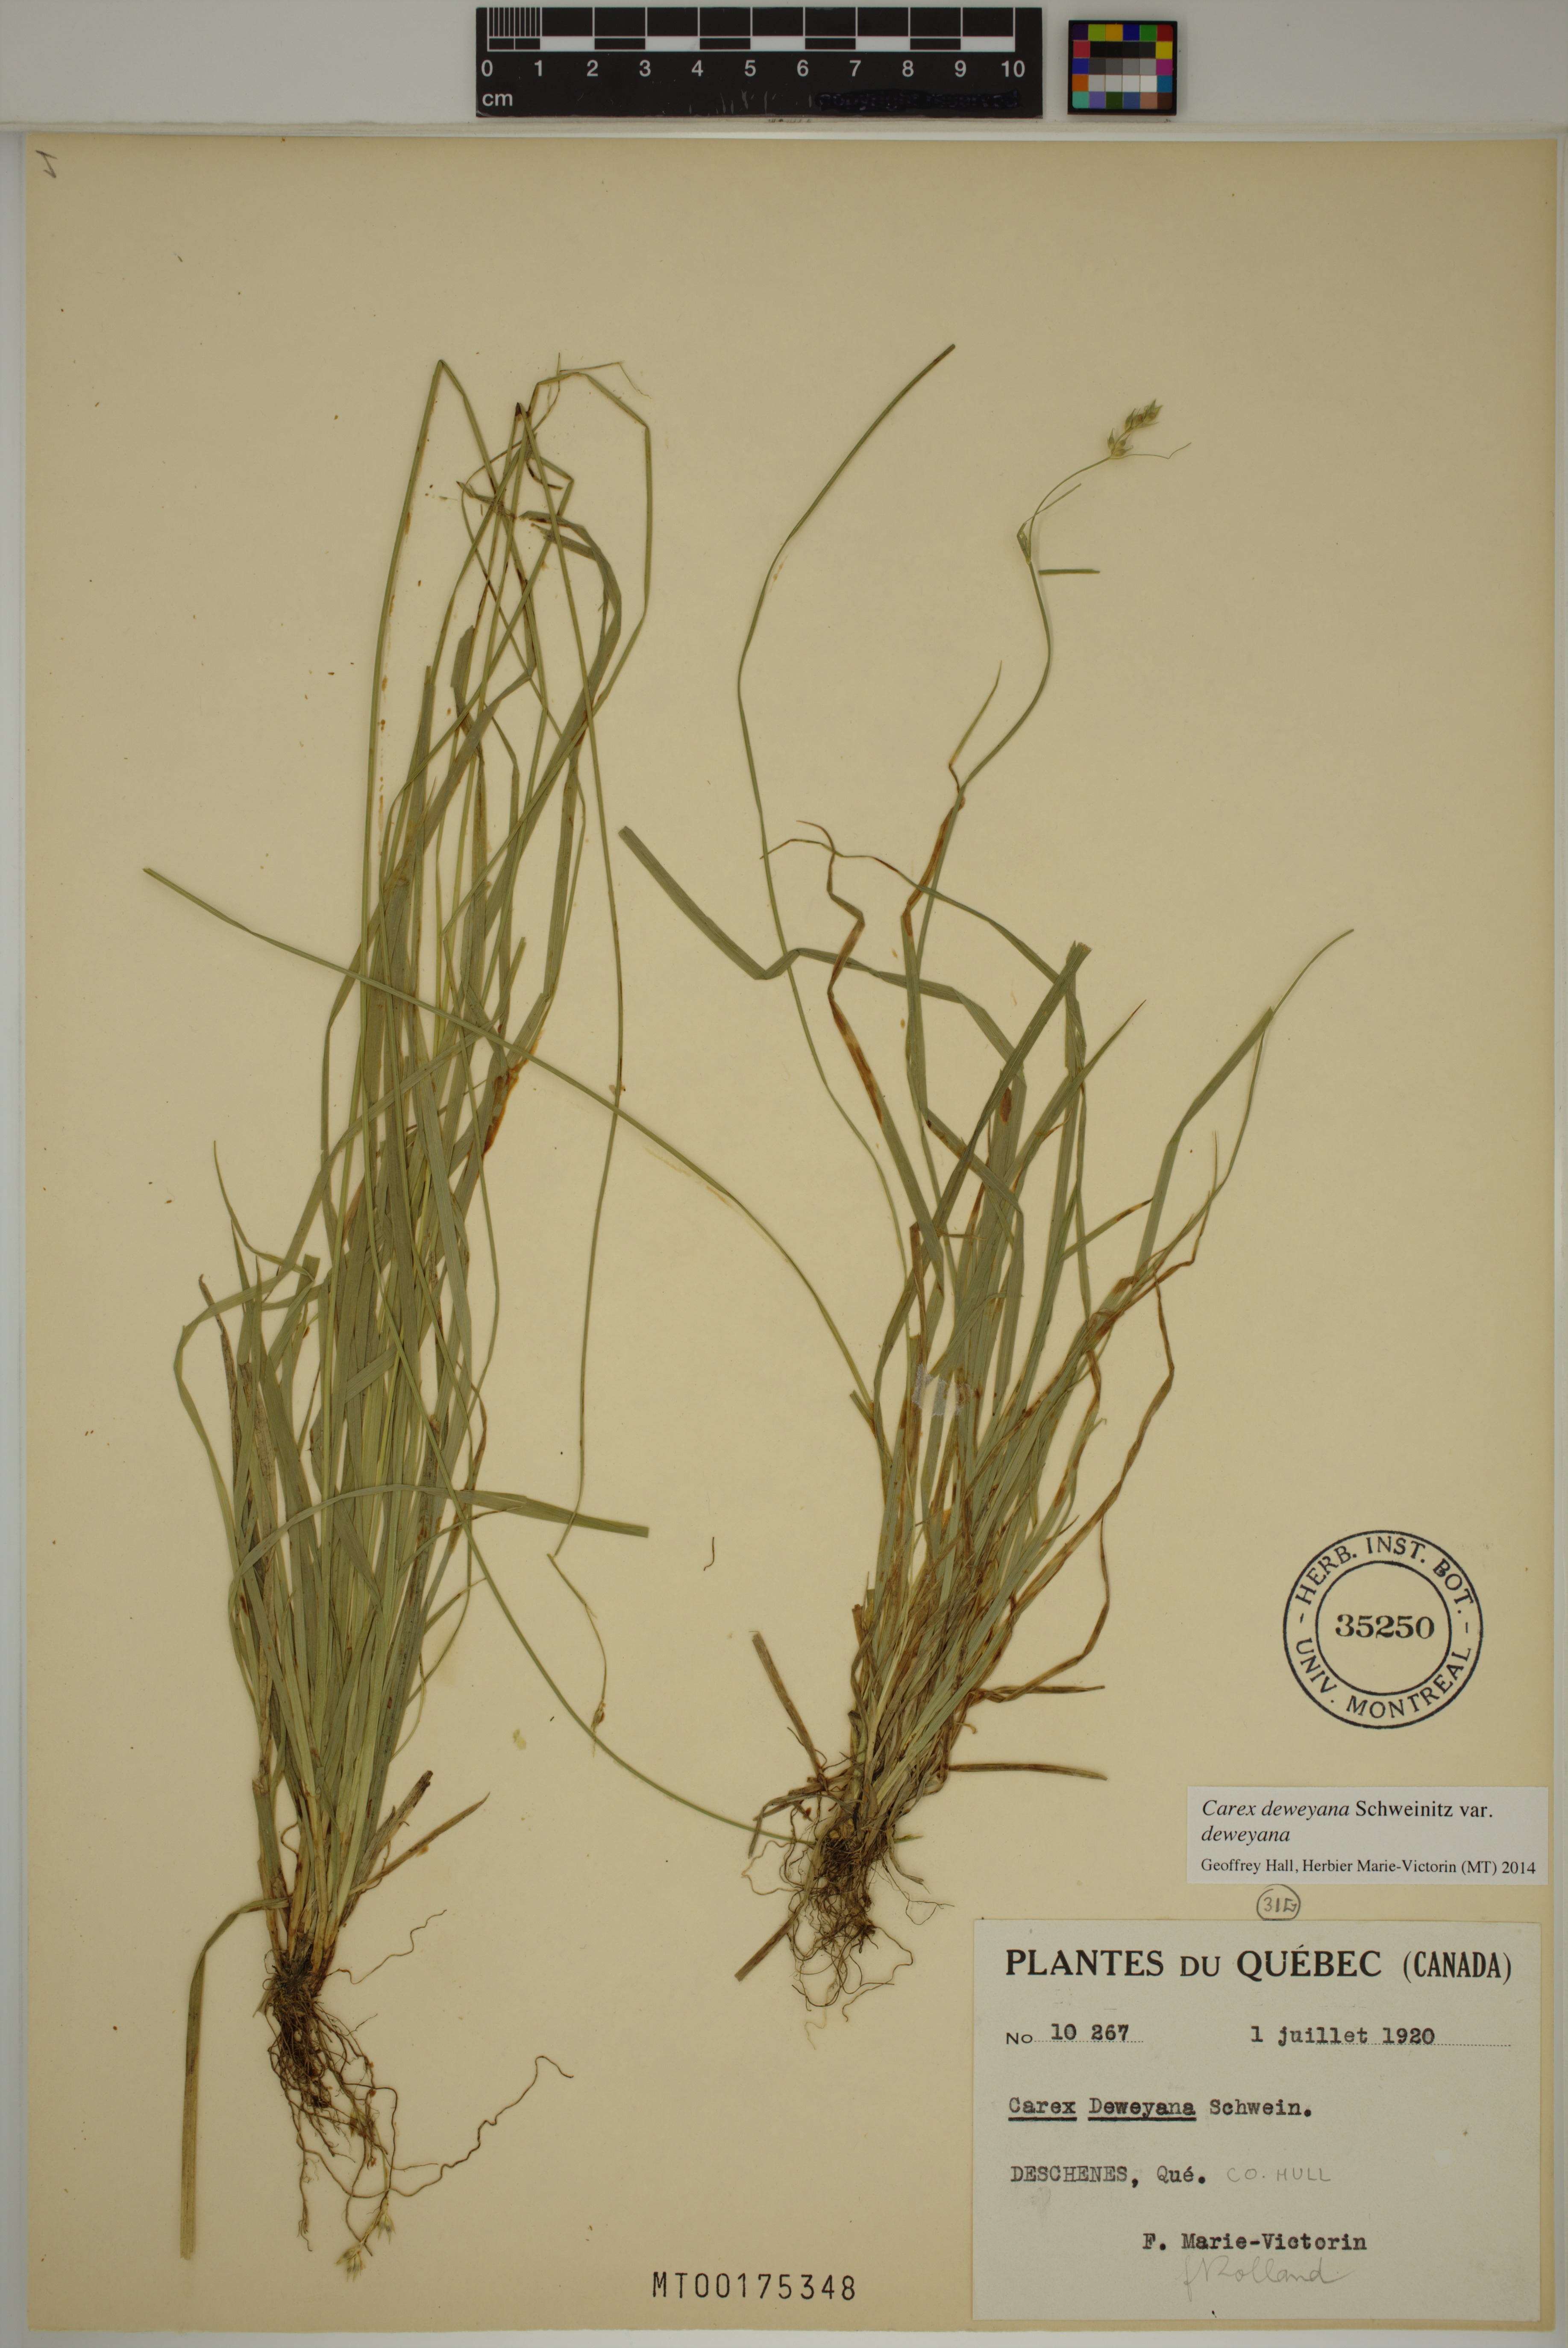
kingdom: Plantae
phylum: Tracheophyta
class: Liliopsida
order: Poales
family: Cyperaceae
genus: Carex
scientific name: Carex deweyana
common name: Dewey's sedge
